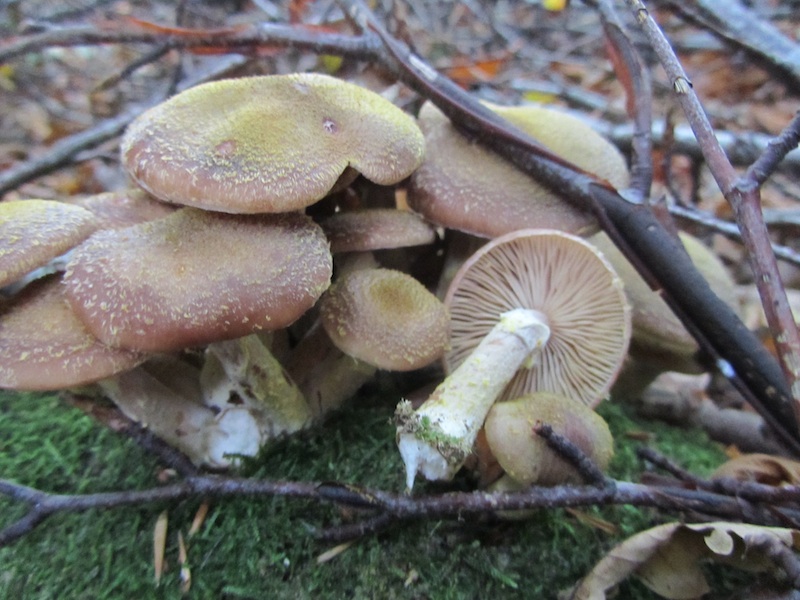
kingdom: Fungi
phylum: Basidiomycota
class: Agaricomycetes
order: Agaricales
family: Physalacriaceae
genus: Armillaria
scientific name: Armillaria lutea
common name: køllestokket honningsvamp
